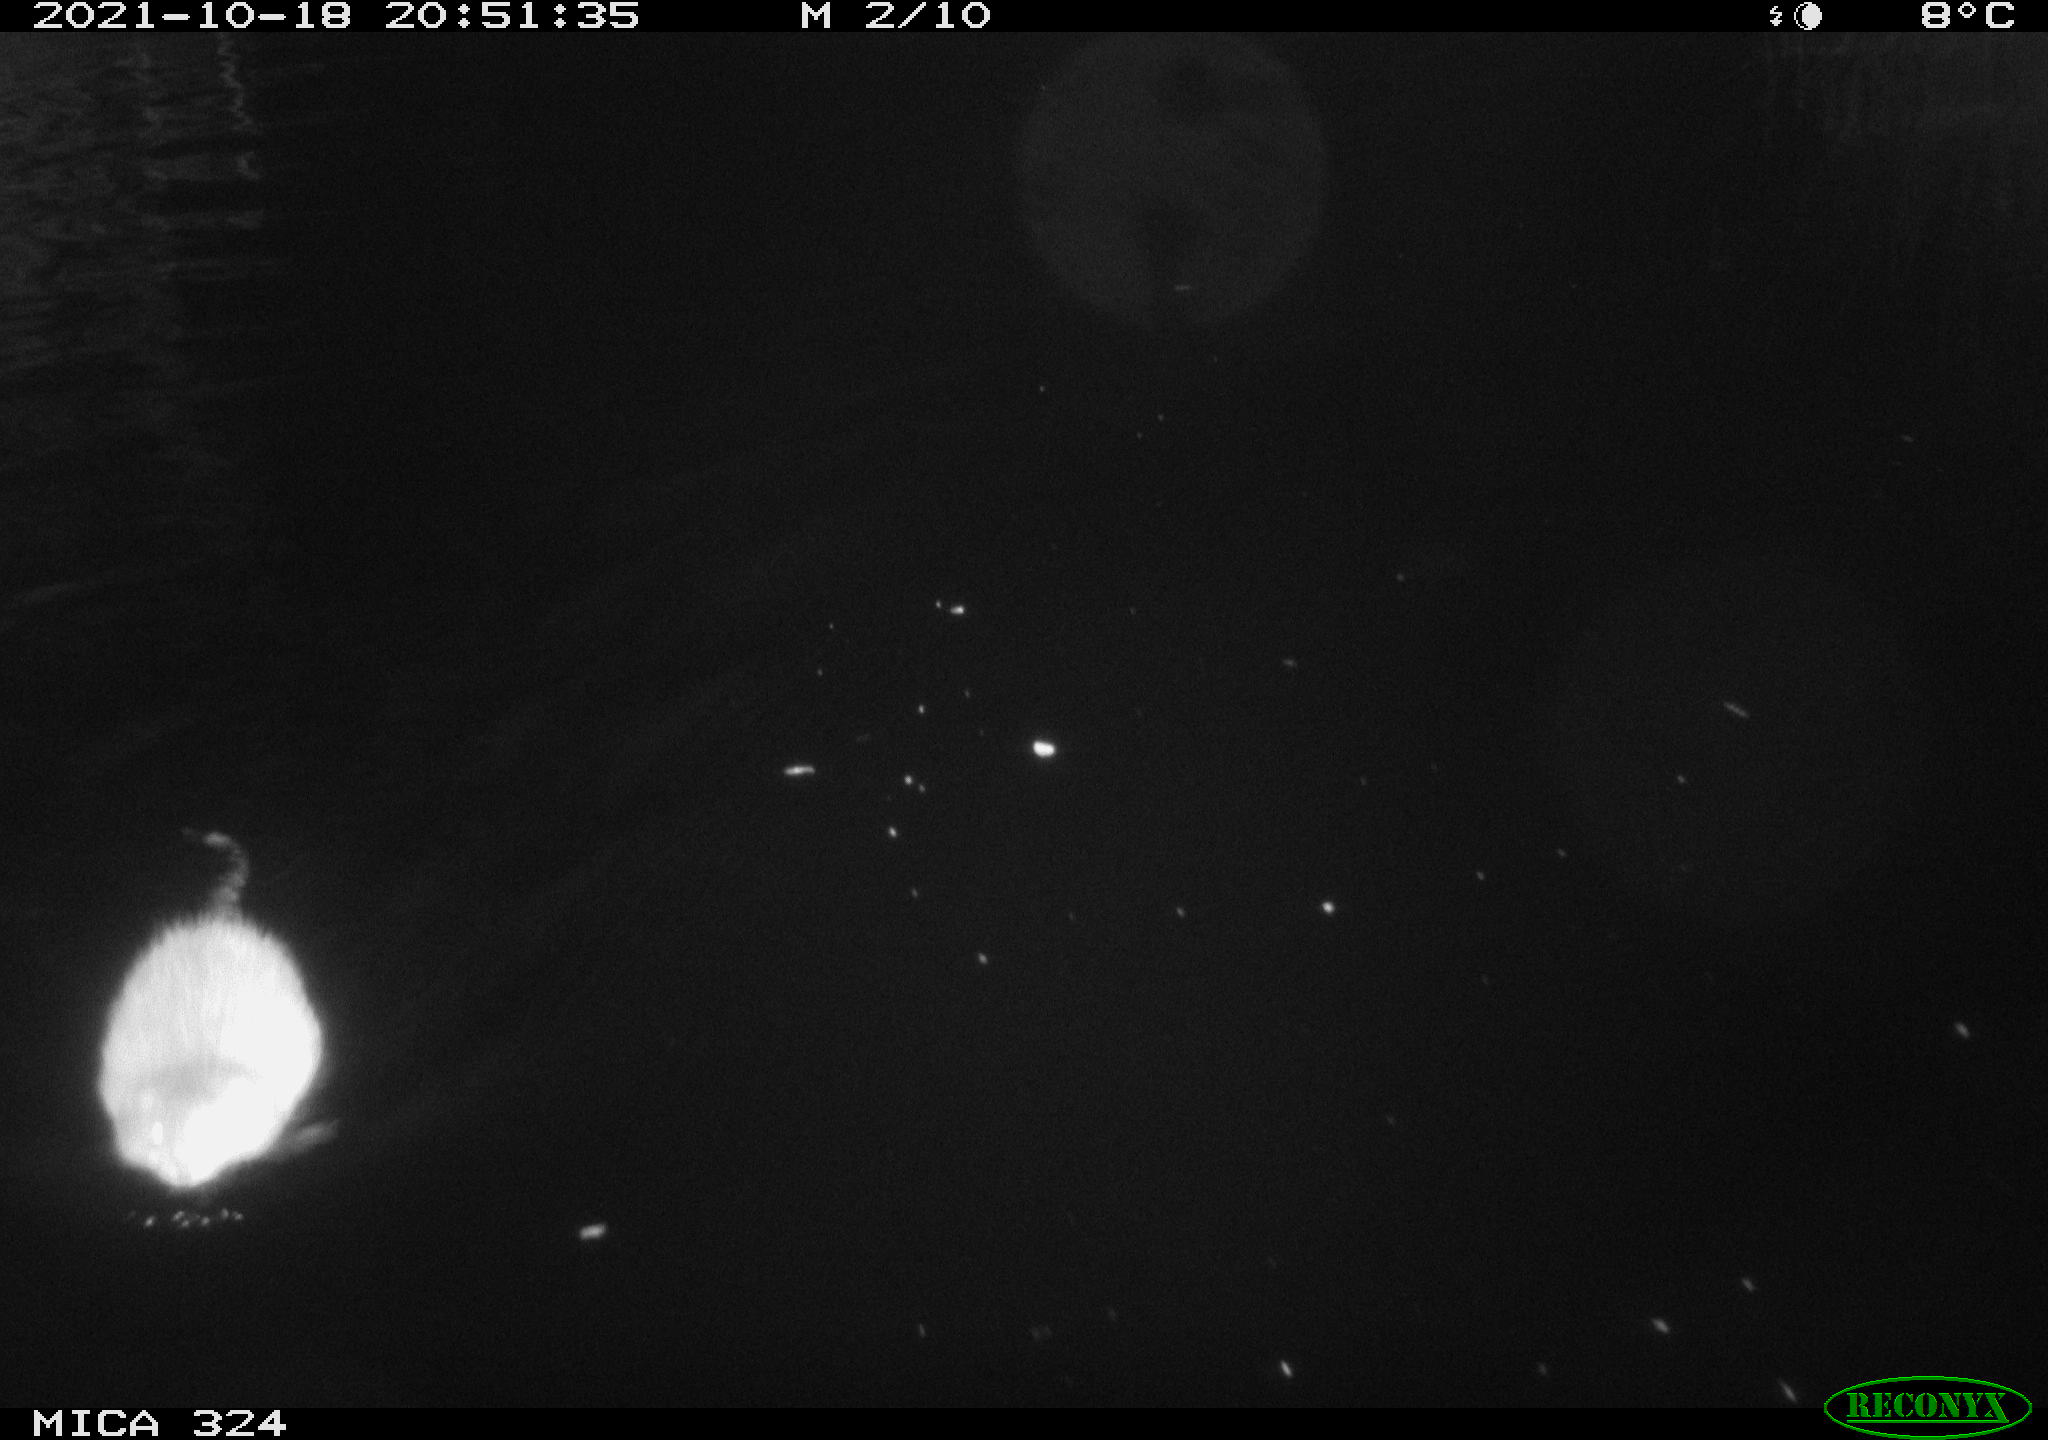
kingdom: Animalia
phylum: Chordata
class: Mammalia
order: Rodentia
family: Cricetidae
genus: Ondatra
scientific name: Ondatra zibethicus
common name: Muskrat
